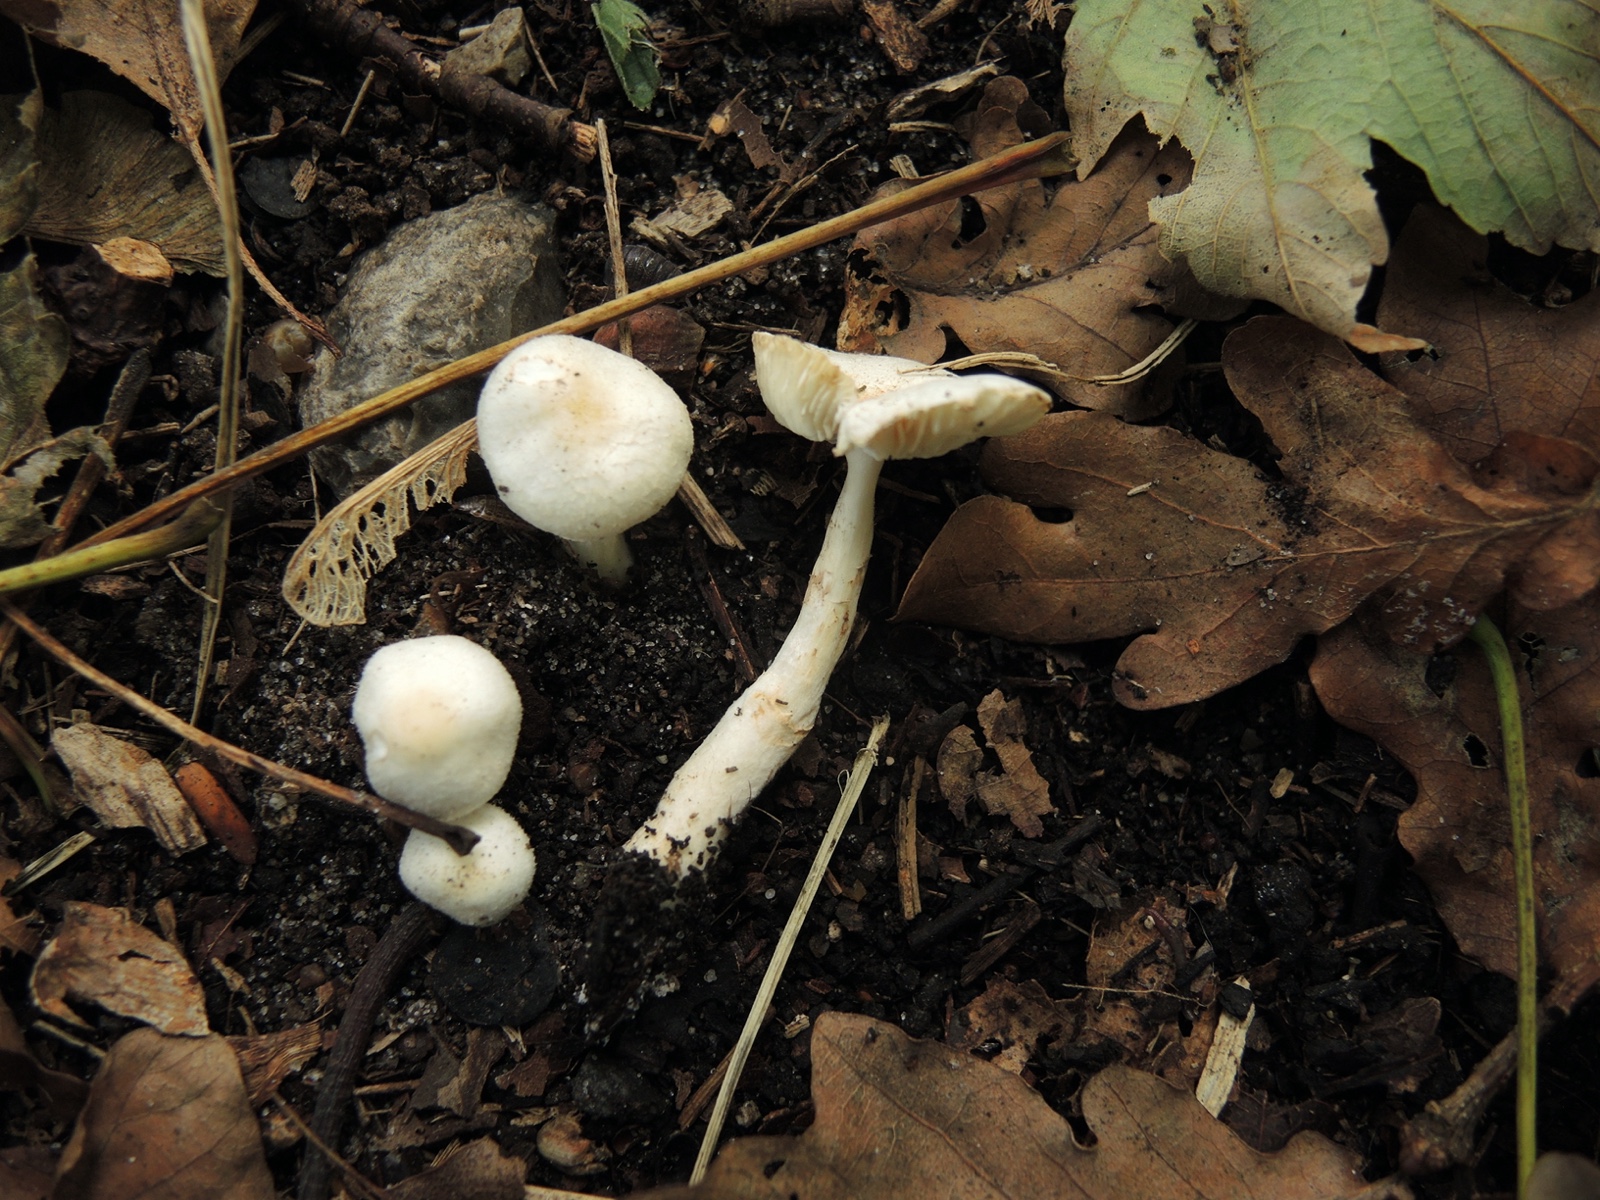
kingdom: Fungi
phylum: Basidiomycota
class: Agaricomycetes
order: Agaricales
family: Agaricaceae
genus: Leucoagaricus
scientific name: Leucoagaricus sericifer
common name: hvid silkehat
